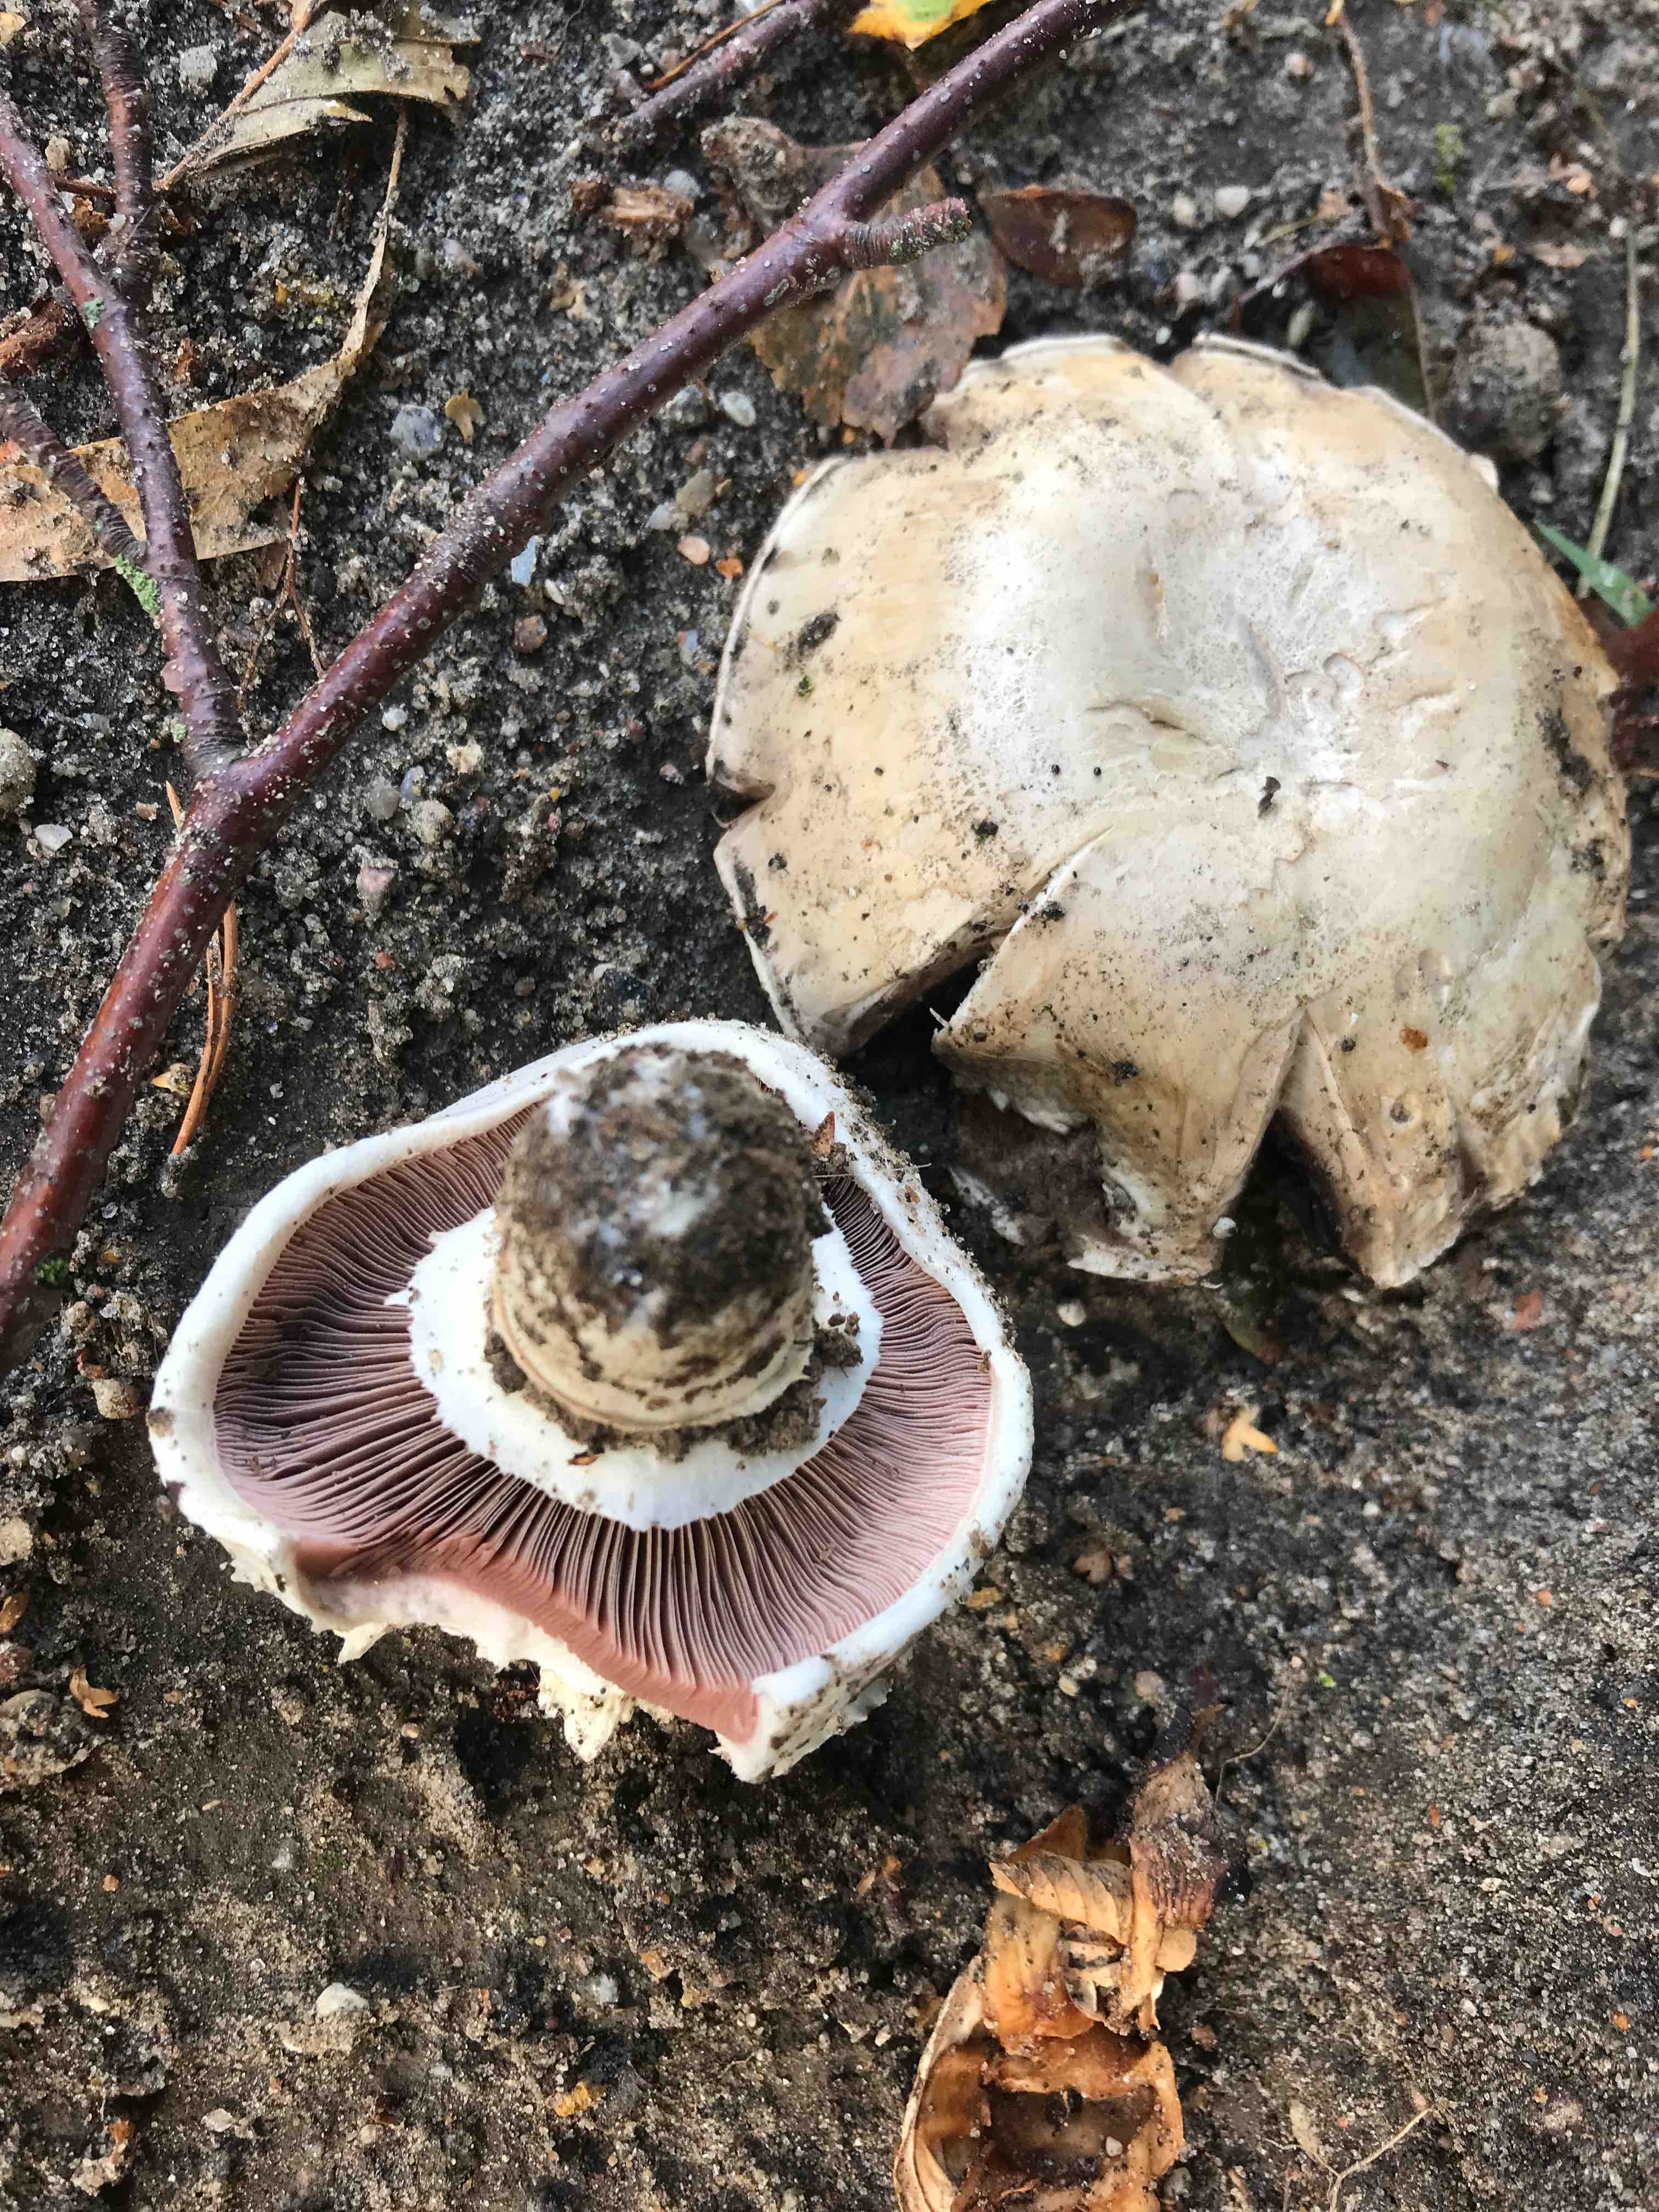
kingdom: Fungi
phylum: Basidiomycota
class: Agaricomycetes
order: Agaricales
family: Agaricaceae
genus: Agaricus
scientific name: Agaricus bitorquis
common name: vej-champignon
